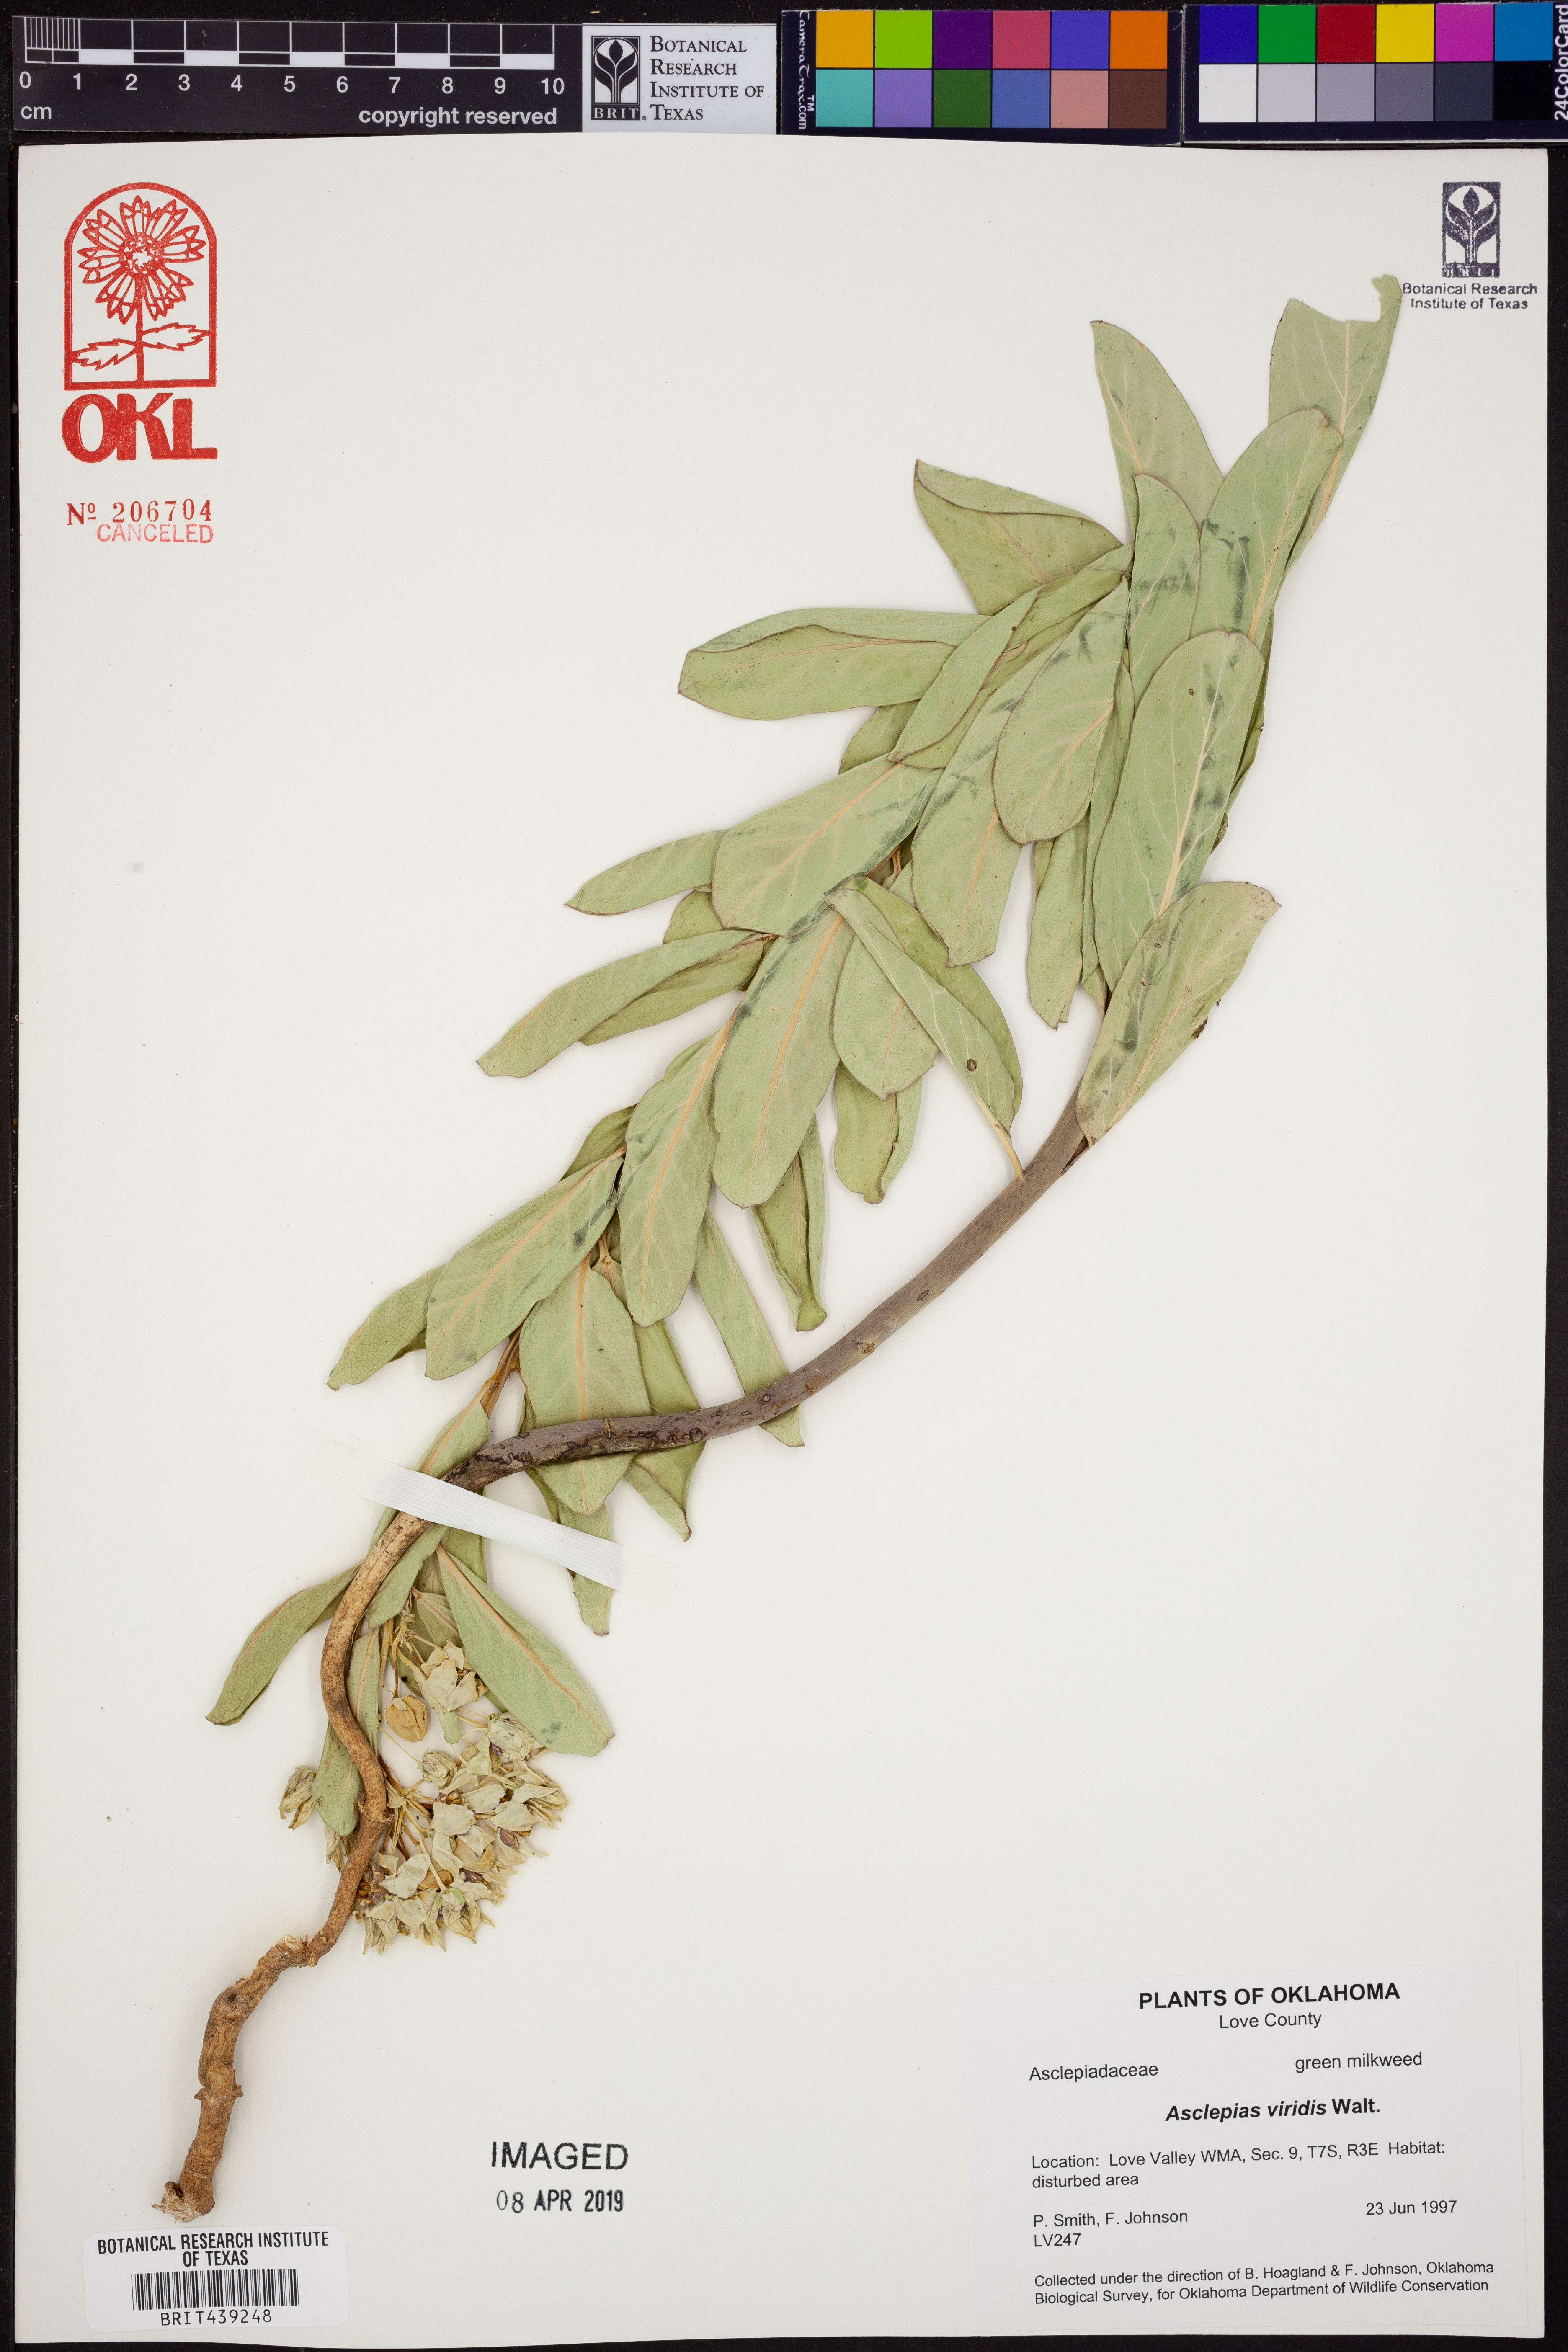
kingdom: Plantae
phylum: Tracheophyta
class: Magnoliopsida
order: Gentianales
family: Apocynaceae
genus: Asclepias
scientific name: Asclepias viridis
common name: Antelope-horns
